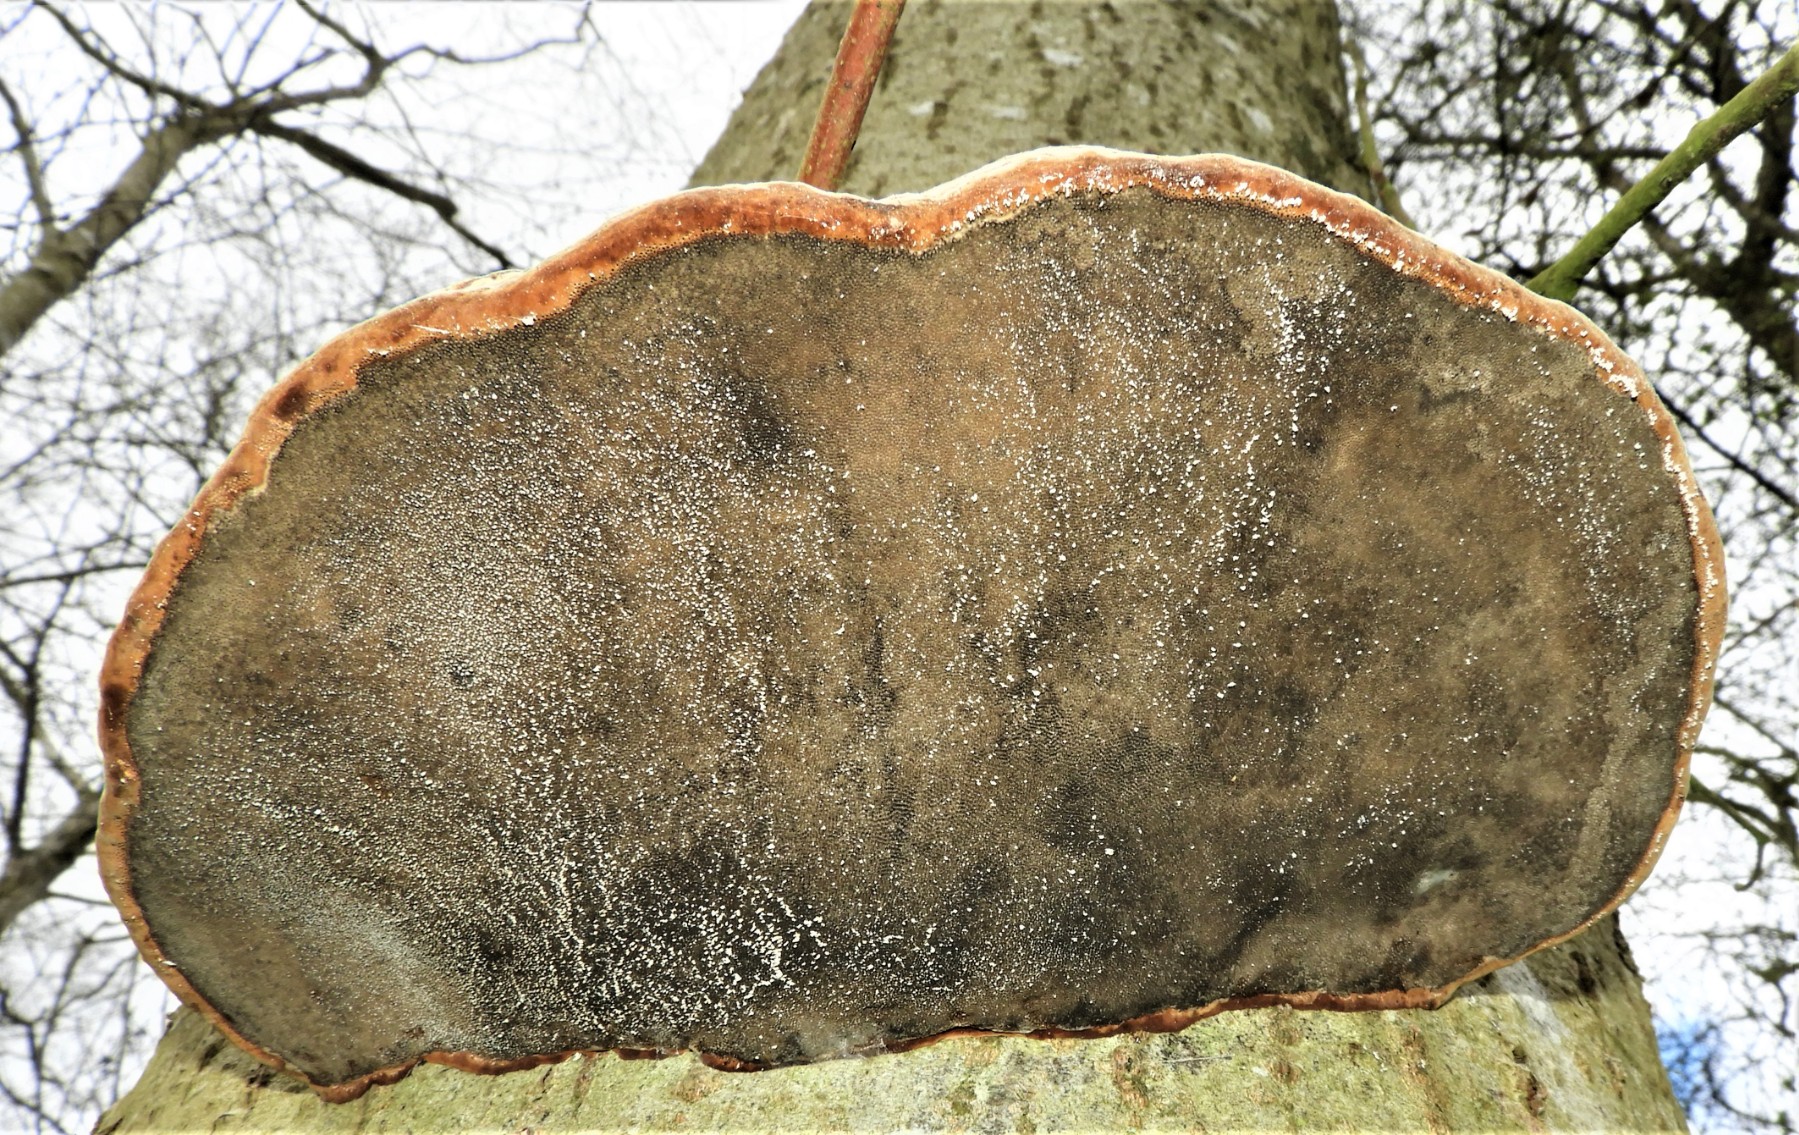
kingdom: Fungi
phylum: Basidiomycota
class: Agaricomycetes
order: Polyporales
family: Polyporaceae
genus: Fomes
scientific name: Fomes fomentarius
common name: tøndersvamp
